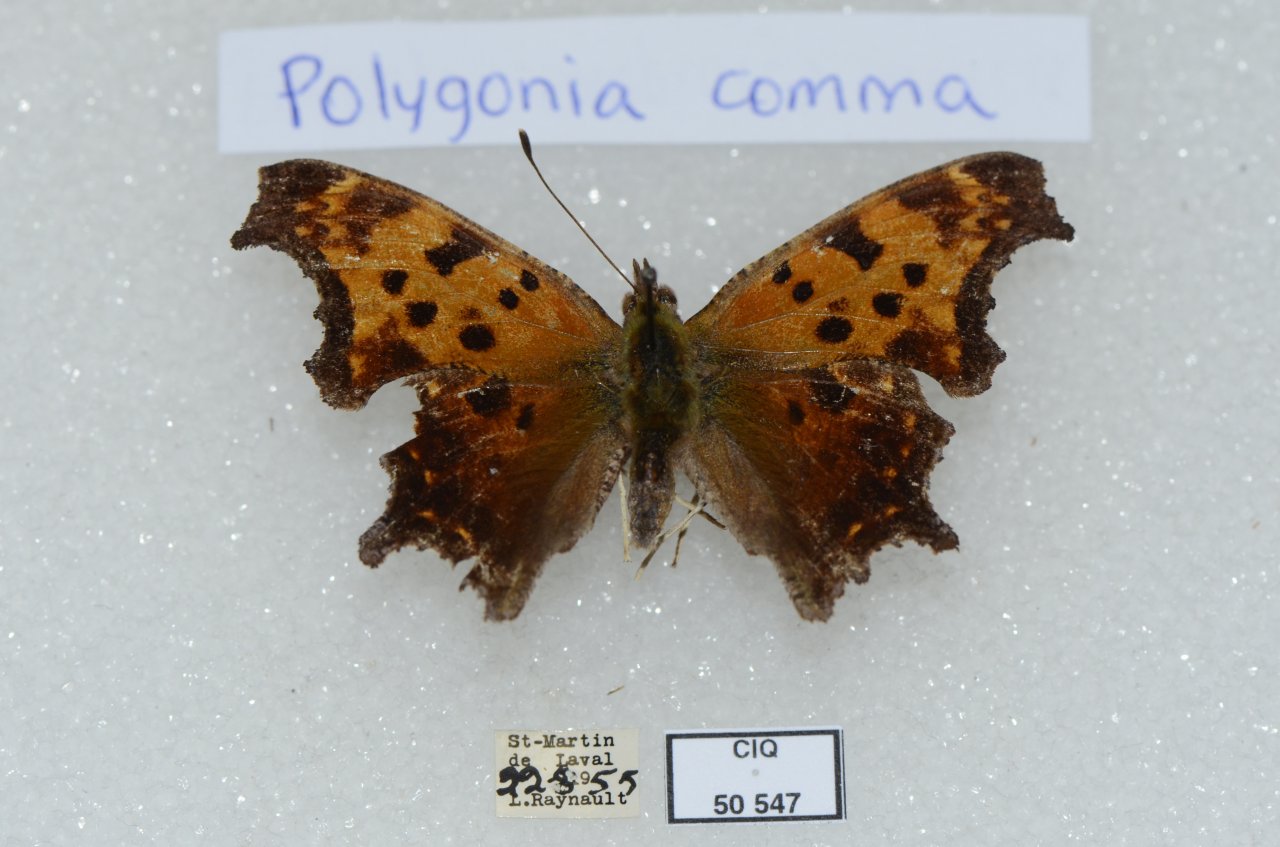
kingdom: Animalia
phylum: Arthropoda
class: Insecta
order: Lepidoptera
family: Nymphalidae
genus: Polygonia
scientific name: Polygonia comma
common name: Eastern Comma
